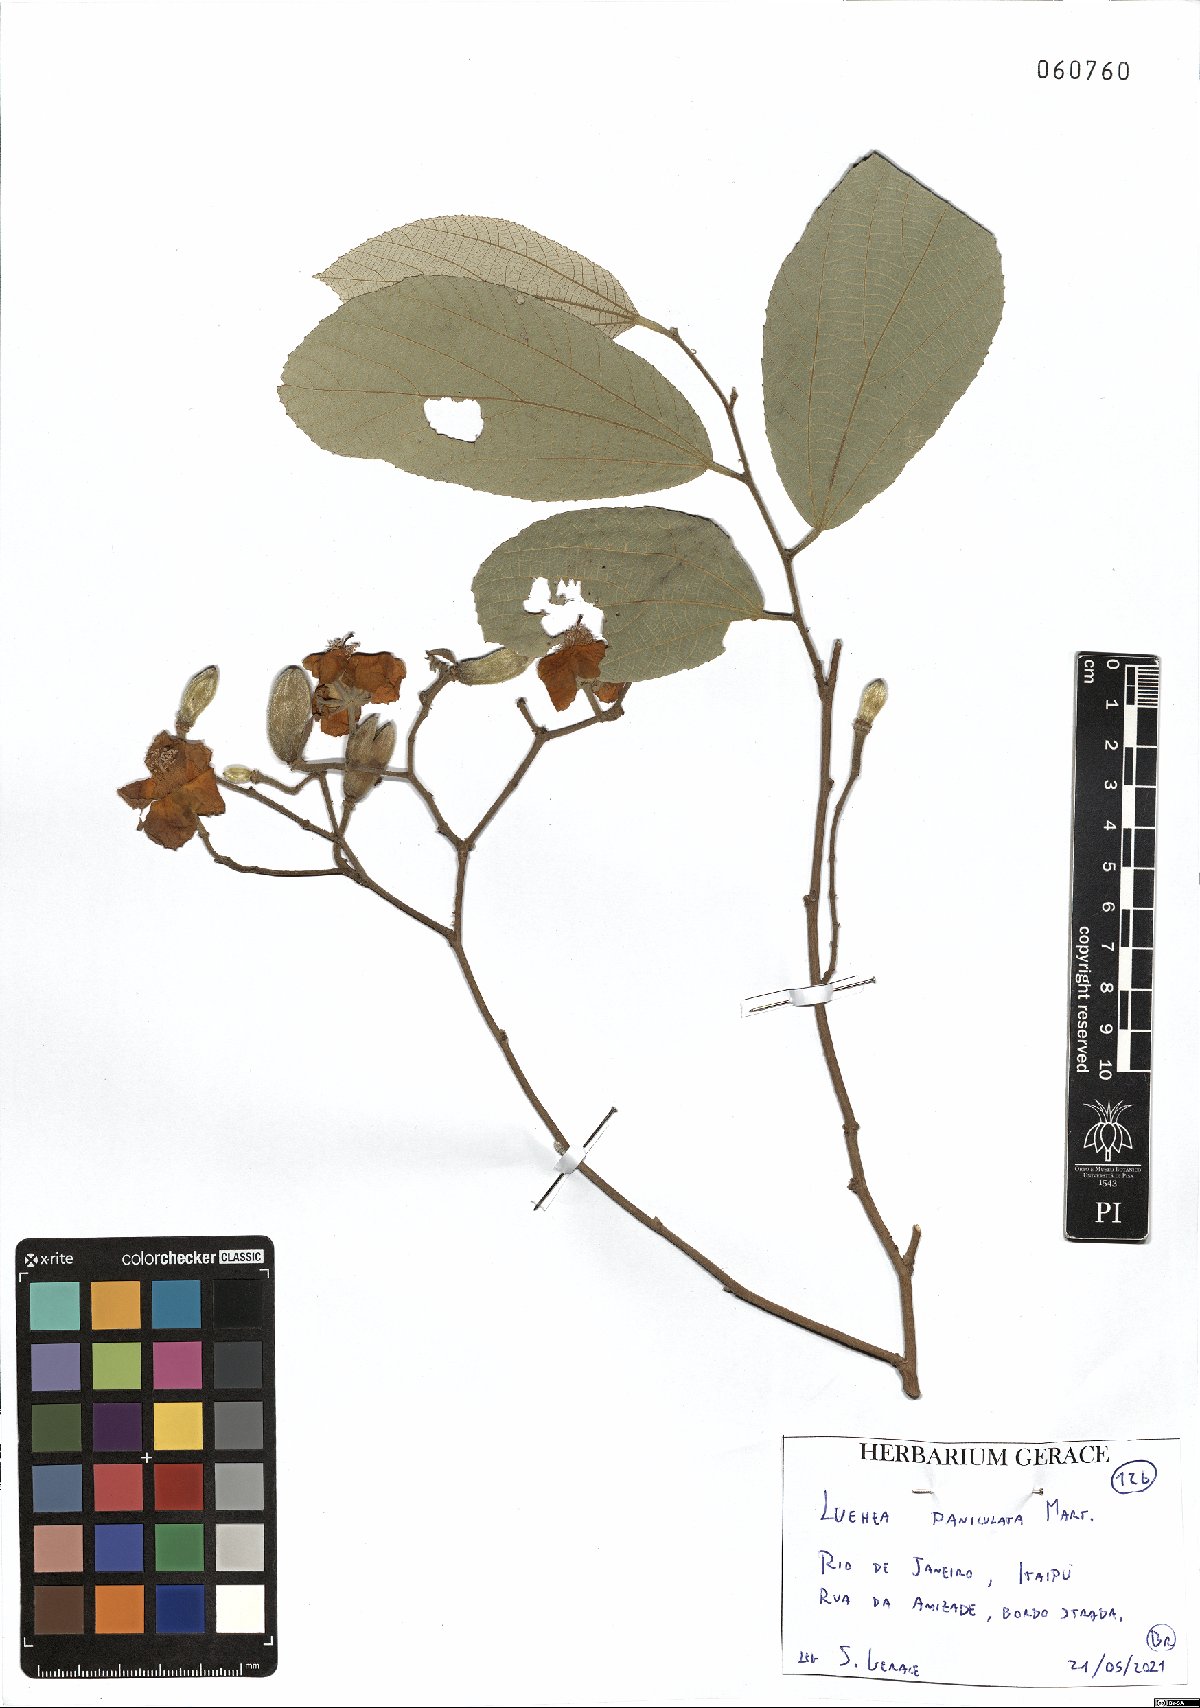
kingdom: Plantae
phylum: Tracheophyta
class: Magnoliopsida
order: Malvales
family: Malvaceae
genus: Luehea
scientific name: Luehea paniculata
